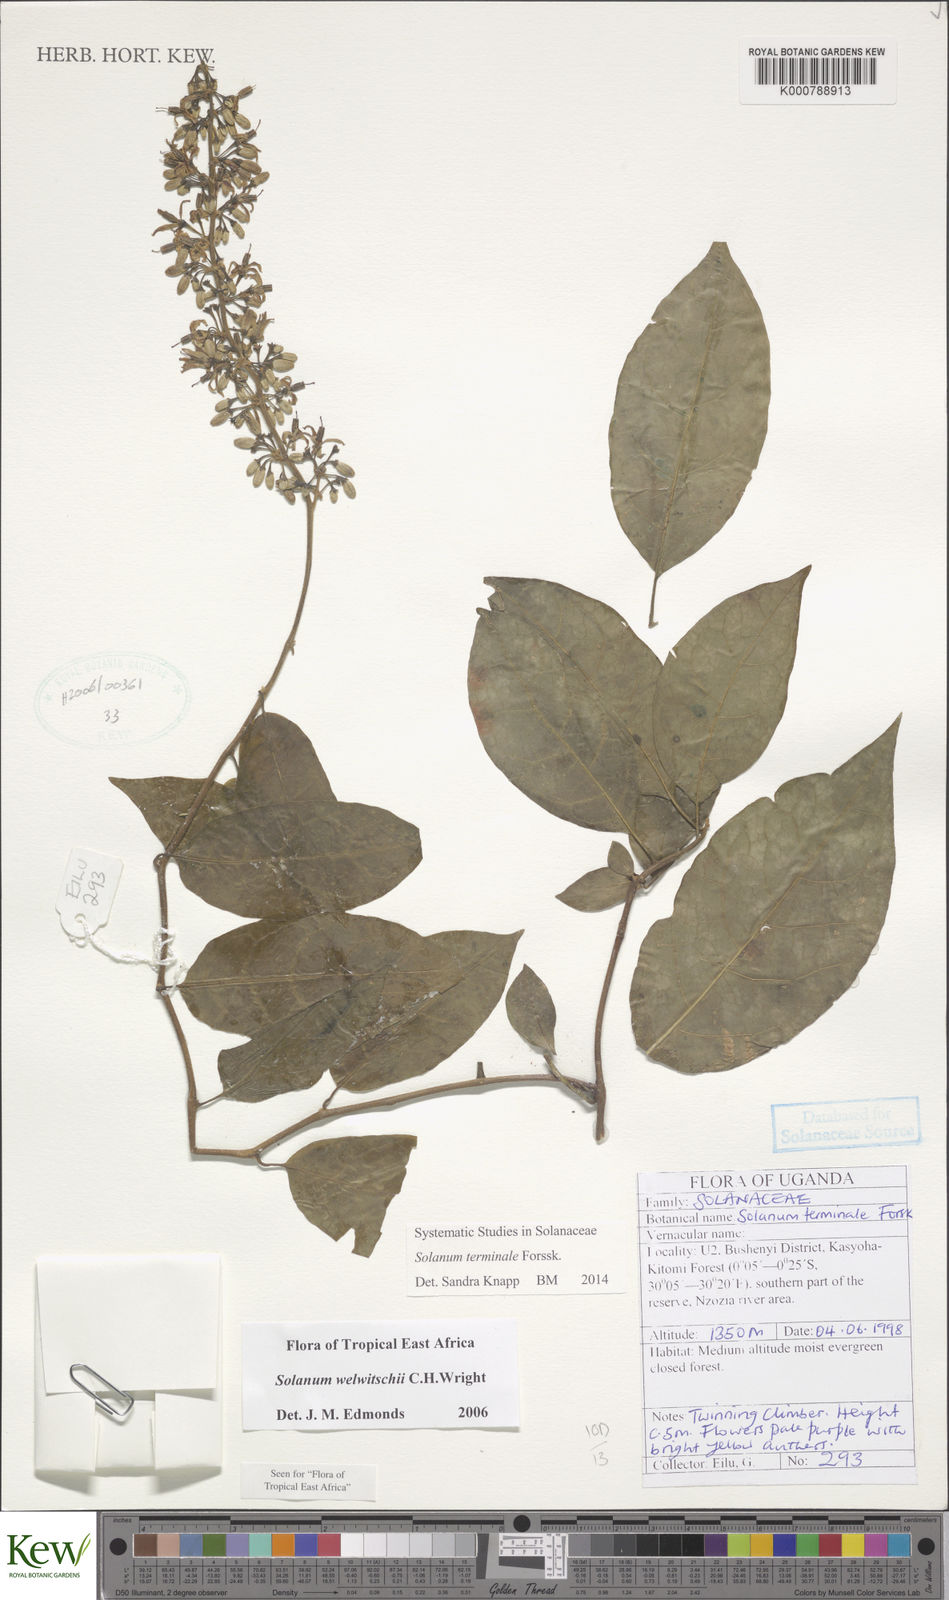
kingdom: Plantae
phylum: Tracheophyta
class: Magnoliopsida
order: Solanales
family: Solanaceae
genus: Solanum
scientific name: Solanum terminale
